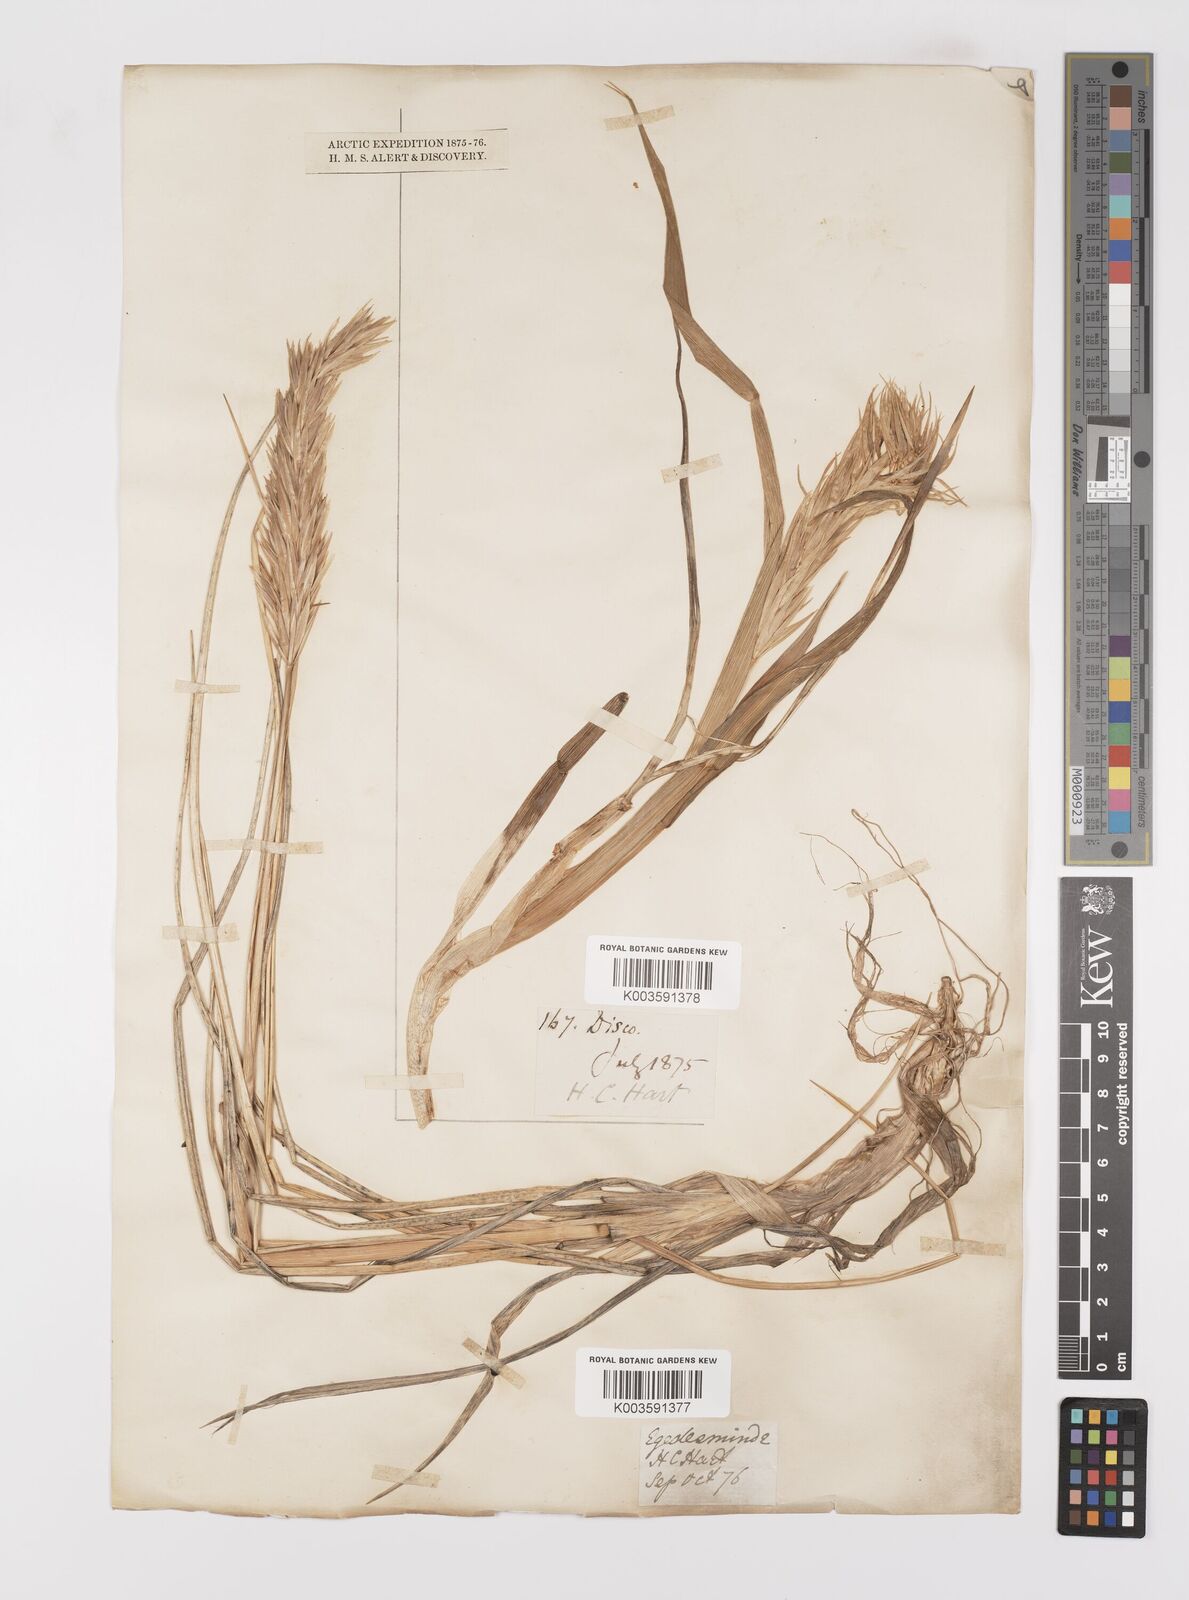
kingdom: Plantae
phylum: Tracheophyta
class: Liliopsida
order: Poales
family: Poaceae
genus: Leymus
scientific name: Leymus mollis
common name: American dune grass
